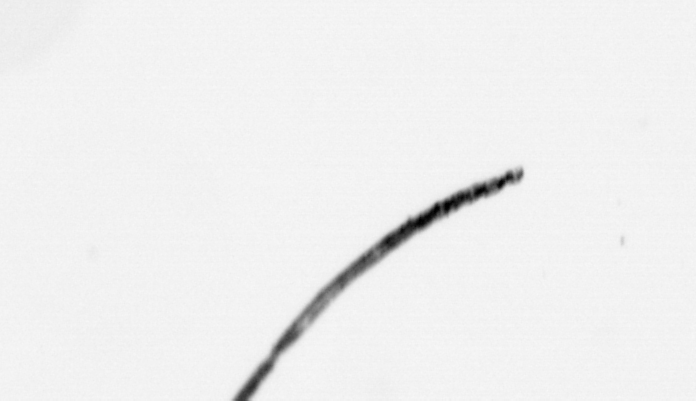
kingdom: Bacteria
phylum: Cyanobacteria
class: Cyanobacteriia
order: Cyanobacteriales
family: Microcoleaceae
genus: Trichodesmium
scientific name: Trichodesmium
